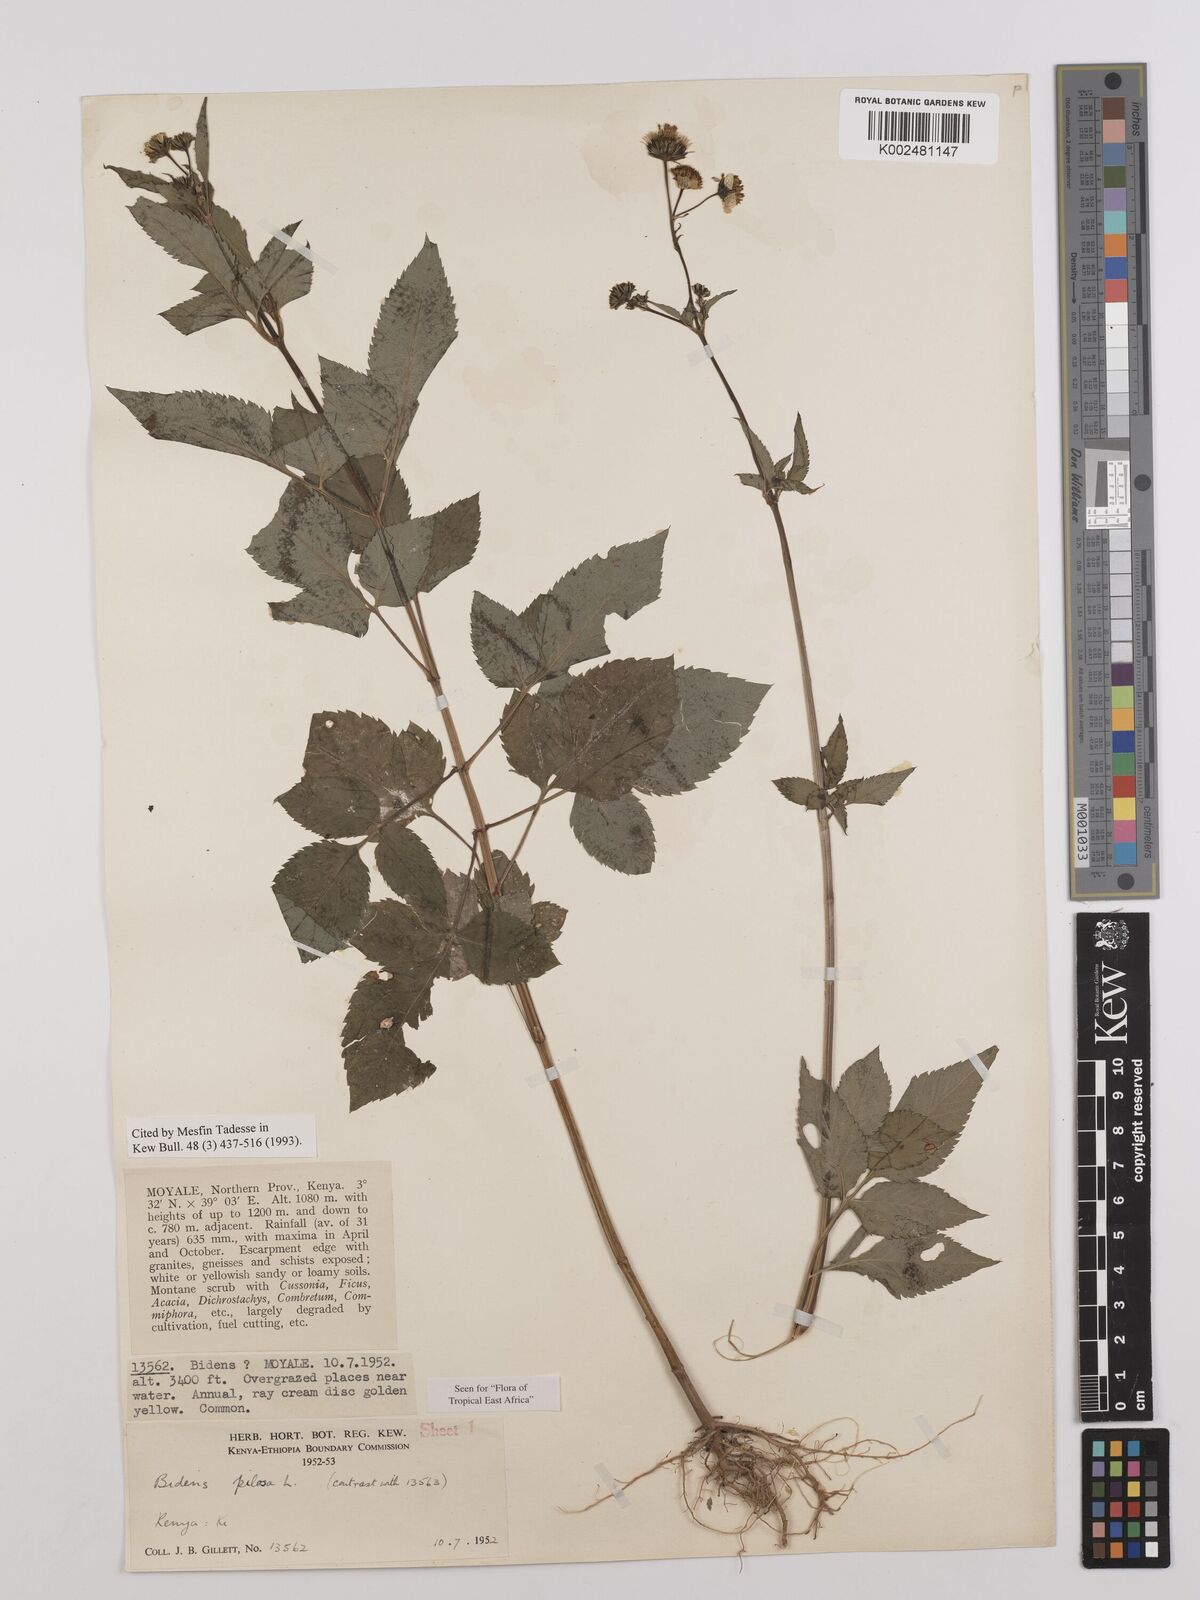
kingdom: Plantae
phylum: Tracheophyta
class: Magnoliopsida
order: Asterales
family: Asteraceae
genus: Bidens
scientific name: Bidens pilosa
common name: Black-jack
